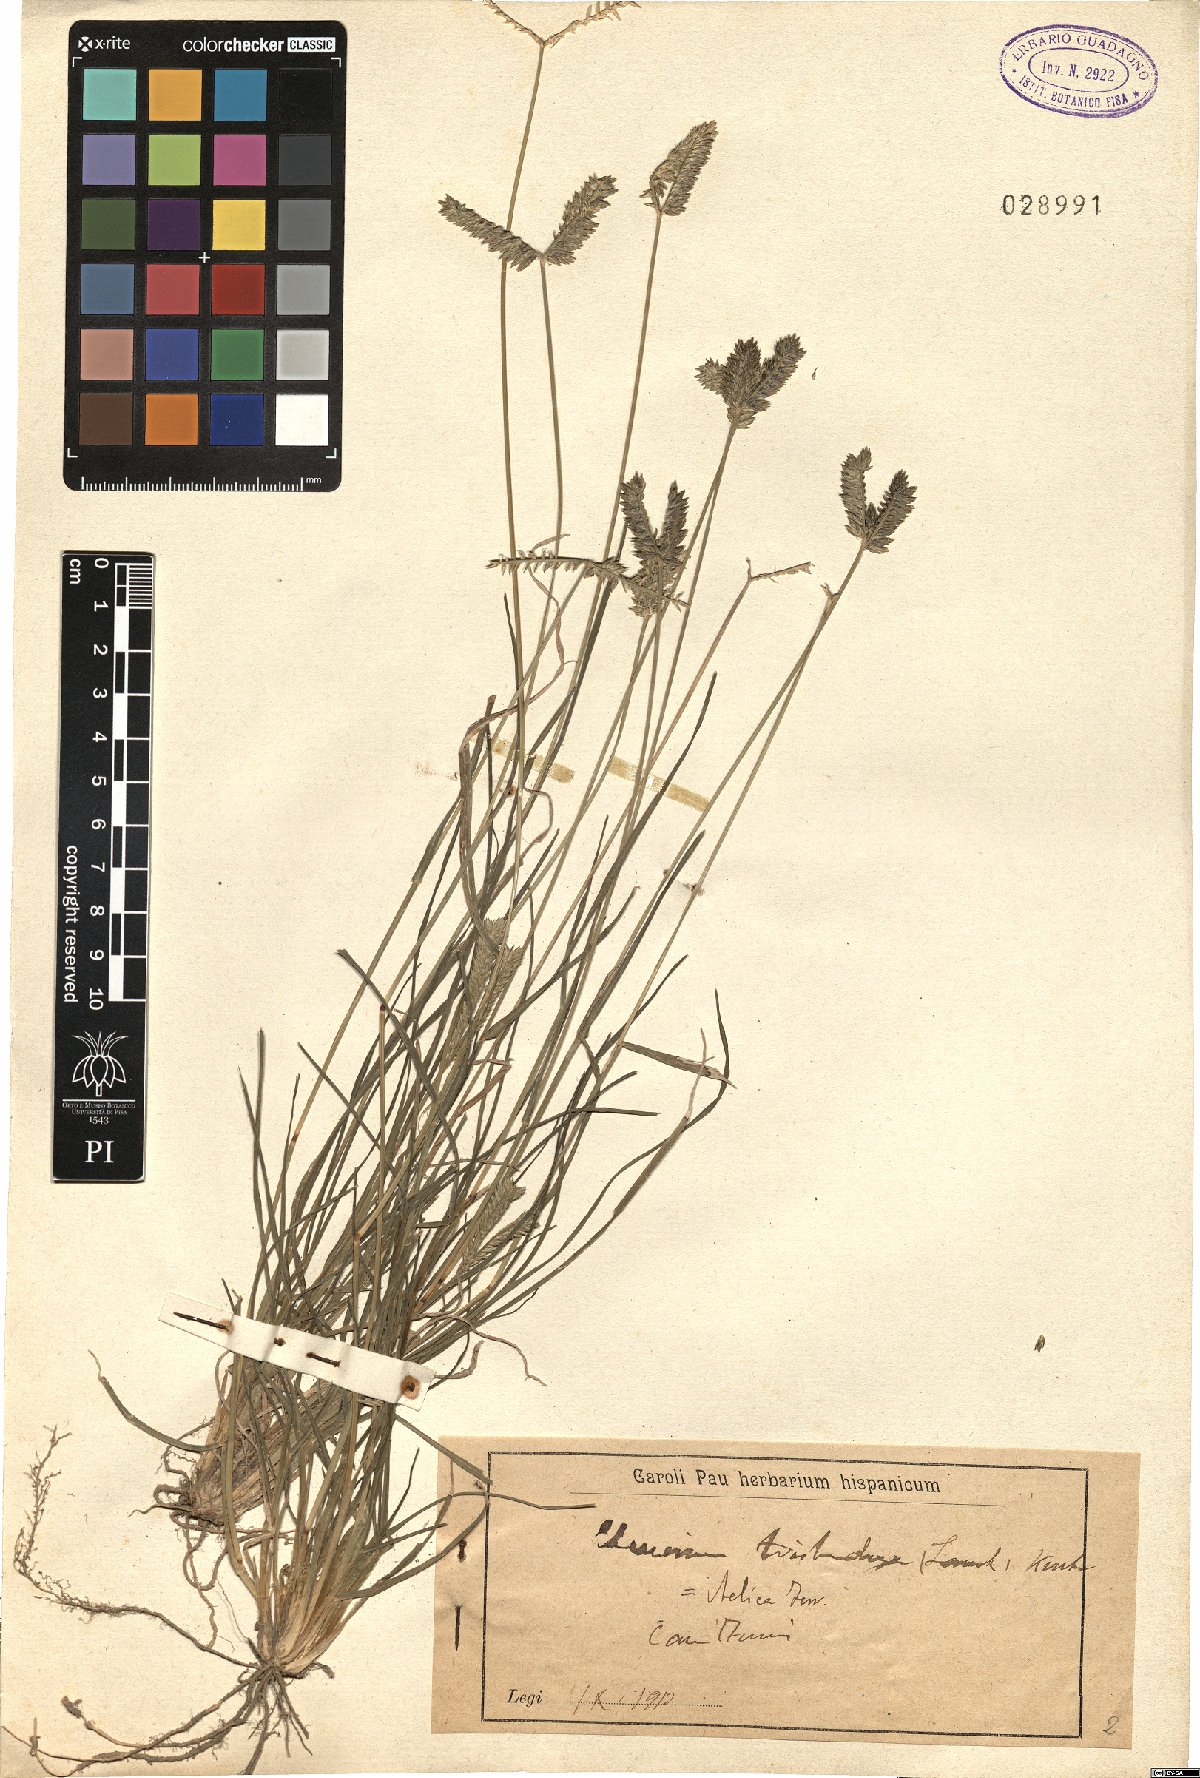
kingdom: Plantae
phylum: Tracheophyta
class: Liliopsida
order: Poales
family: Poaceae
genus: Eleusine
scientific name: Eleusine tristachya
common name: American yard-grass
